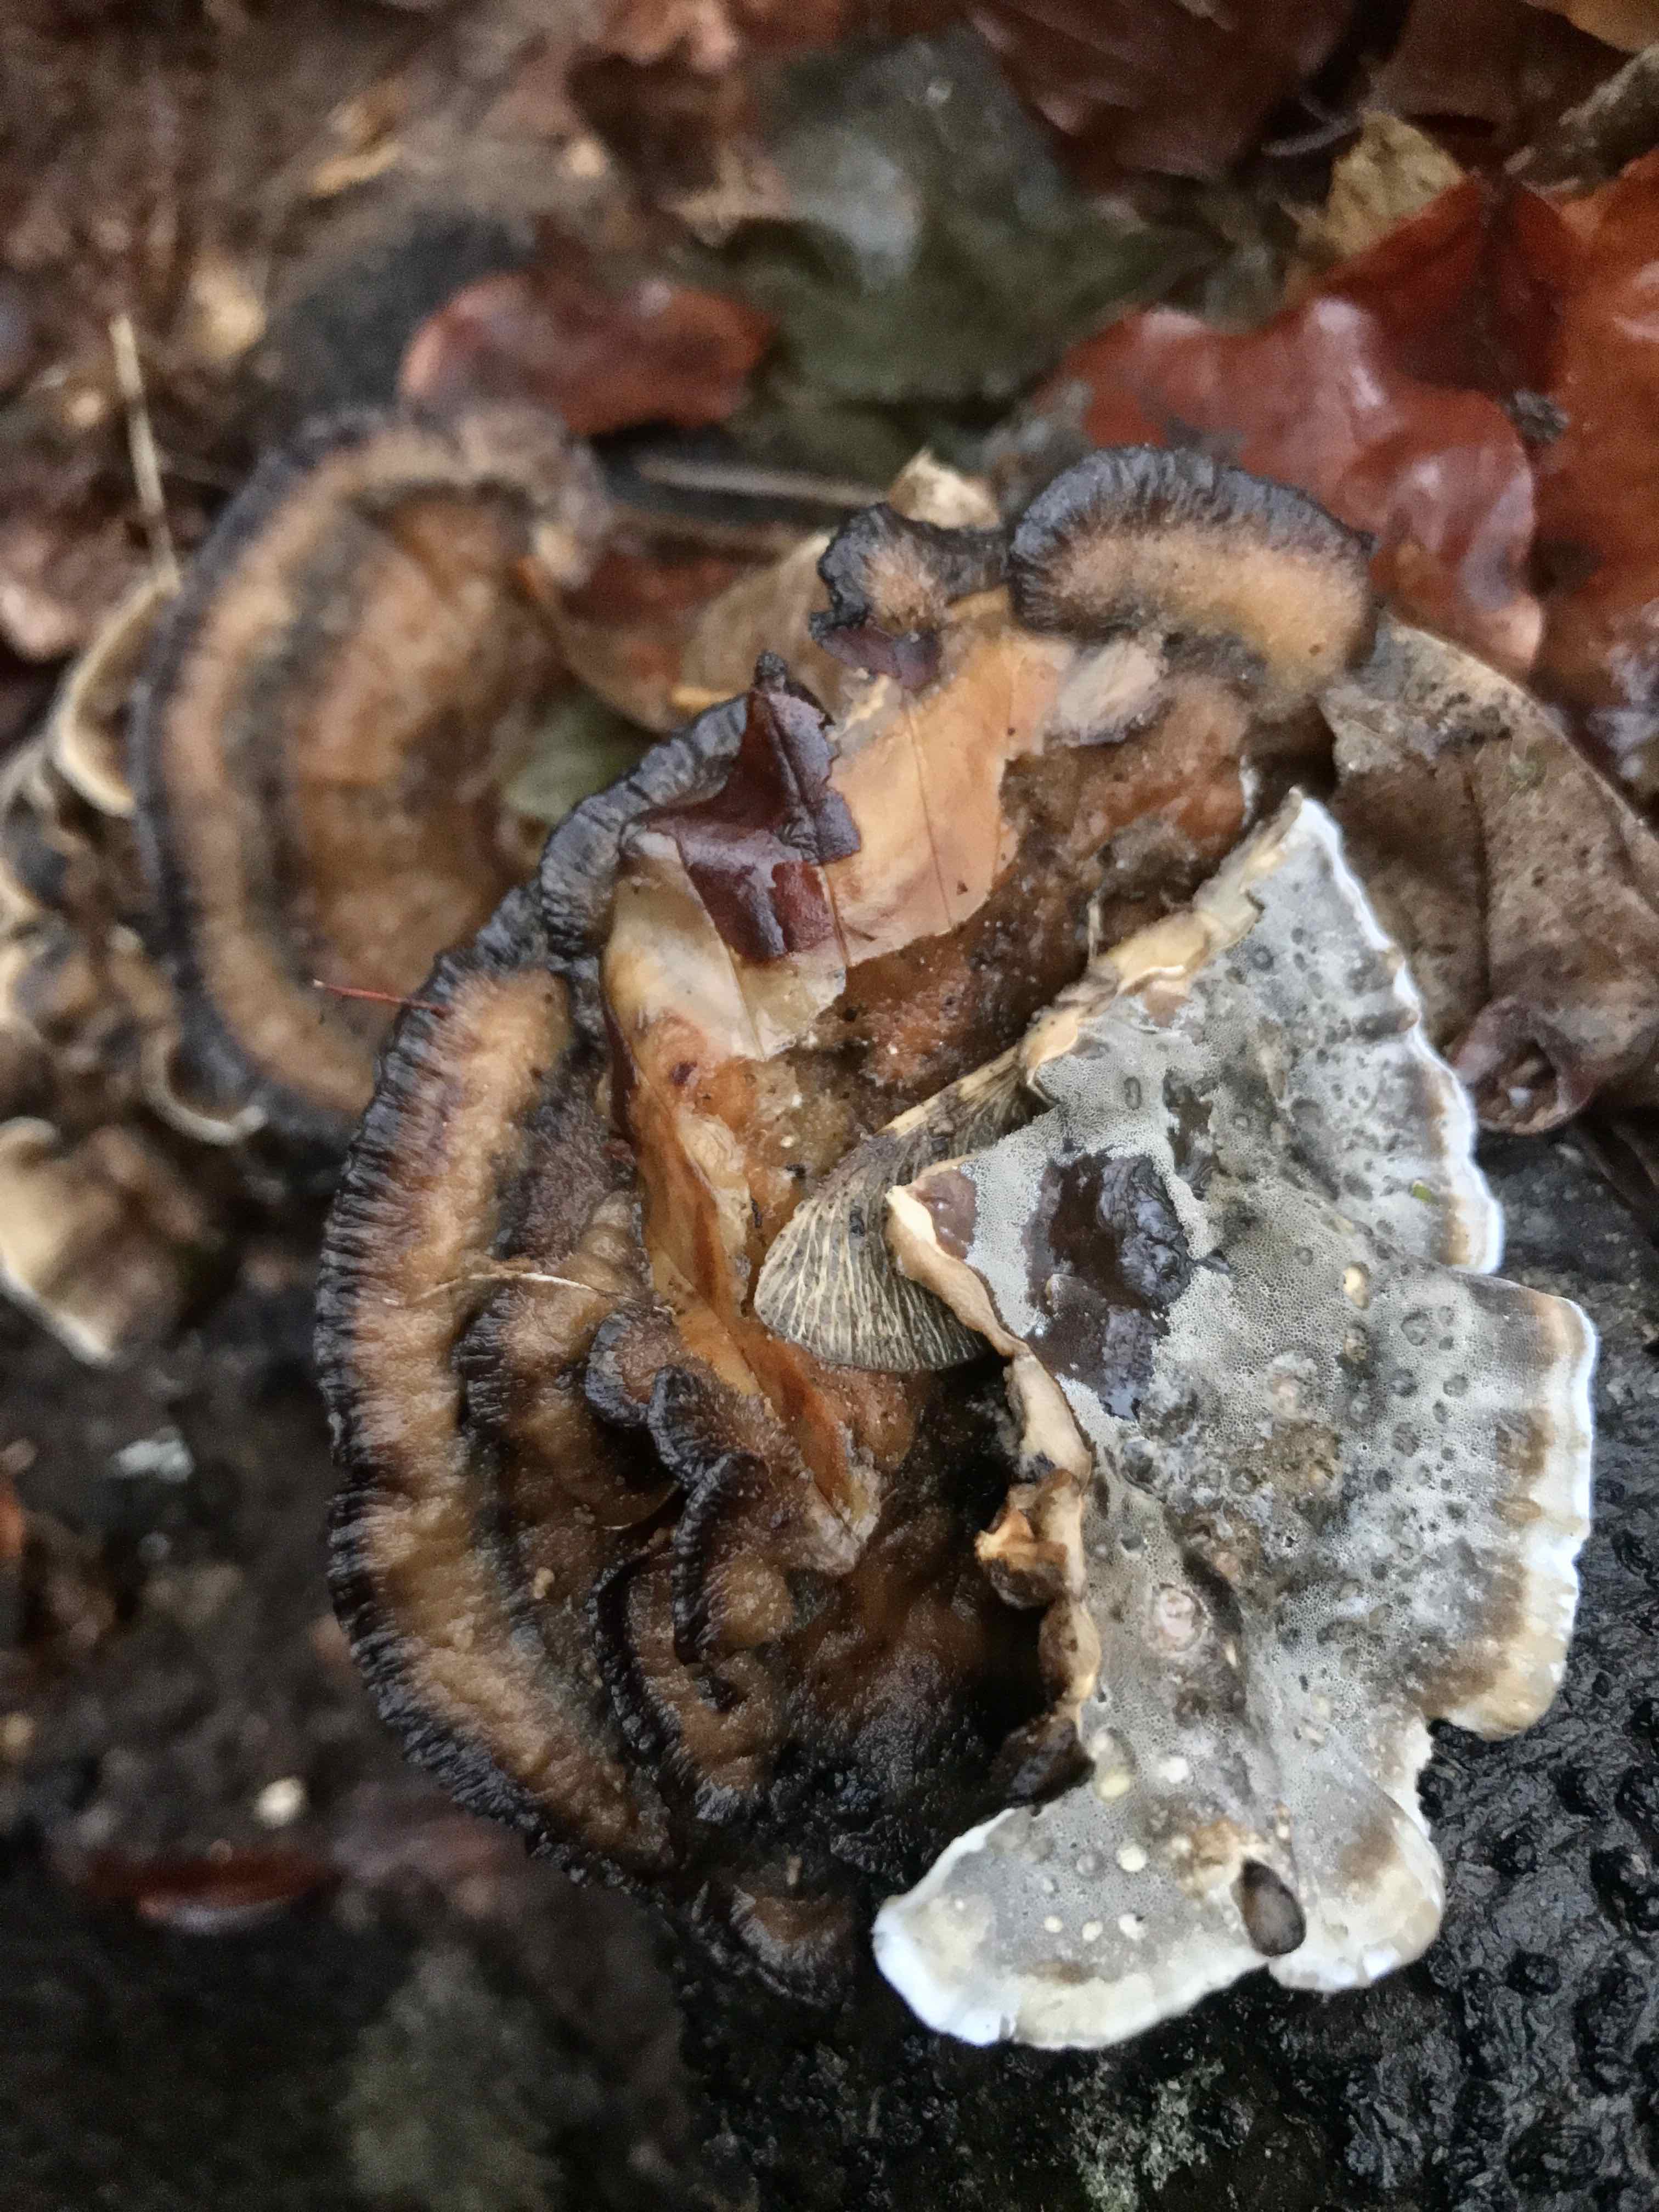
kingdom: Fungi
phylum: Basidiomycota
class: Agaricomycetes
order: Polyporales
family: Phanerochaetaceae
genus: Bjerkandera
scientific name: Bjerkandera adusta
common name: sveden sodporesvamp
